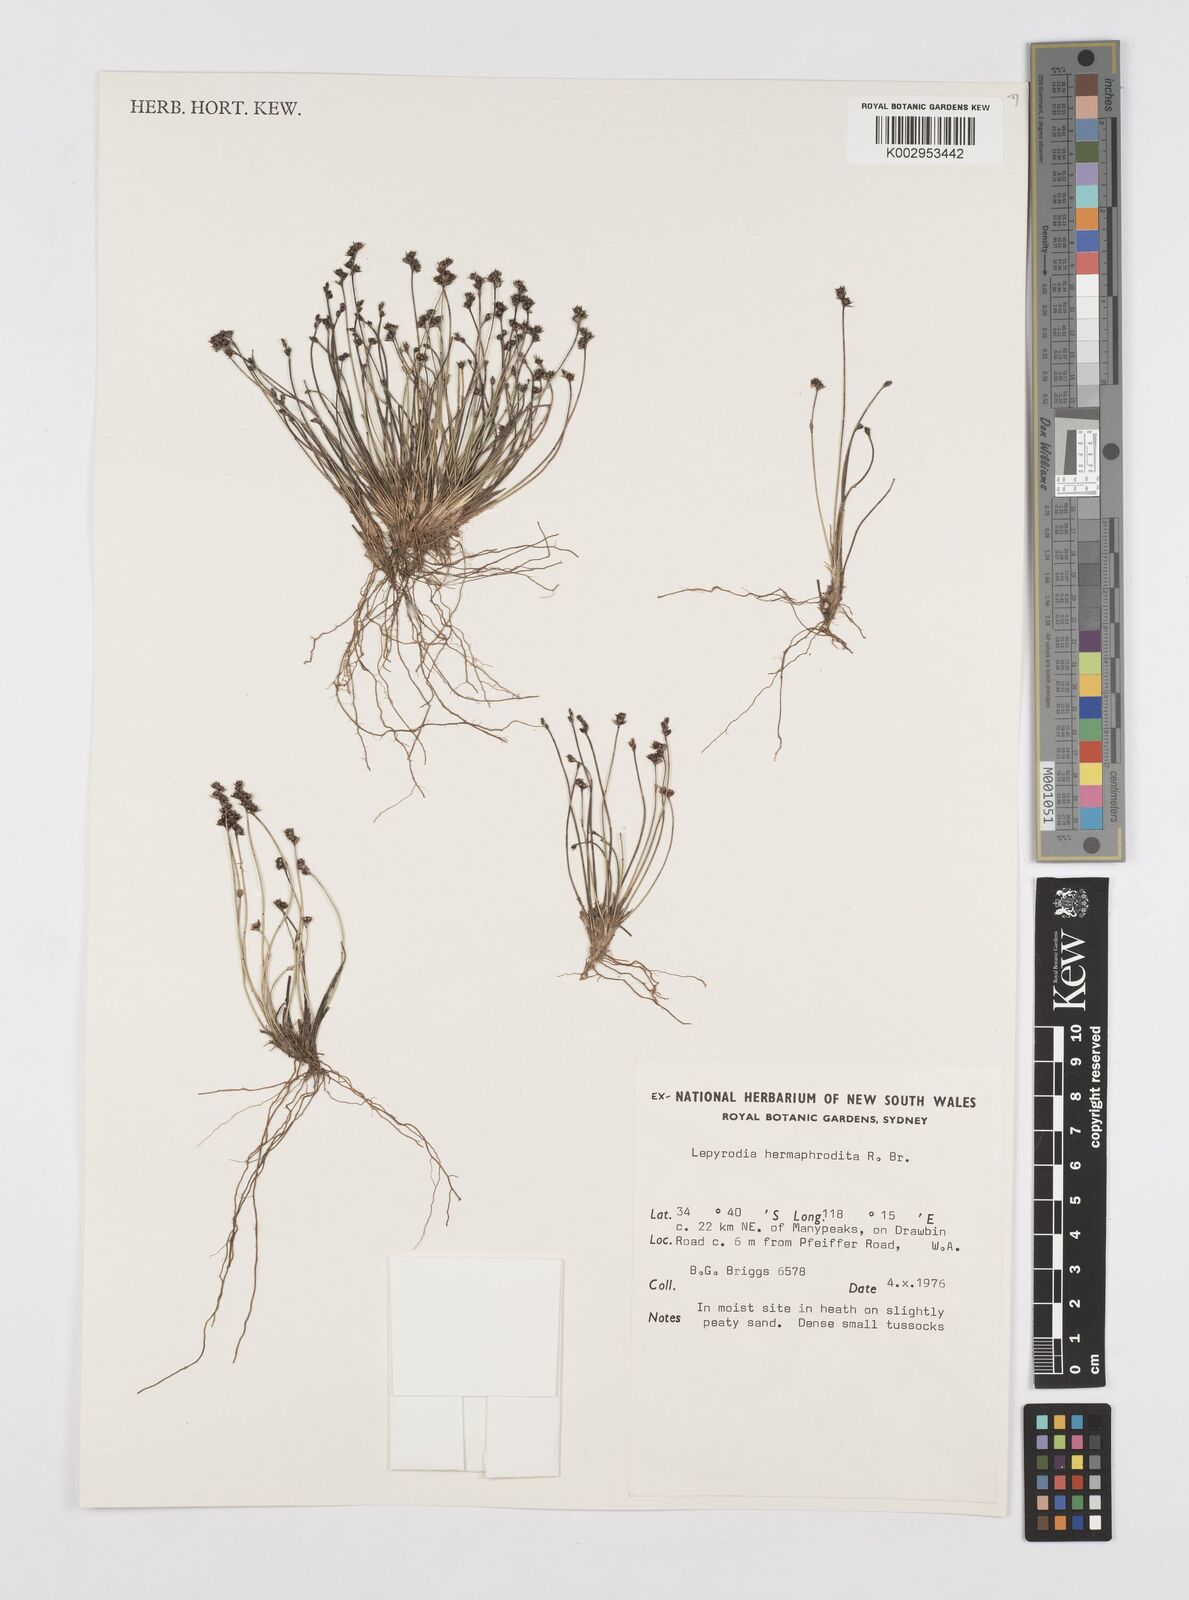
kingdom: Plantae
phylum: Tracheophyta
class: Liliopsida
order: Poales
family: Restionaceae
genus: Lepyrodia
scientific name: Lepyrodia hermaphrodita
